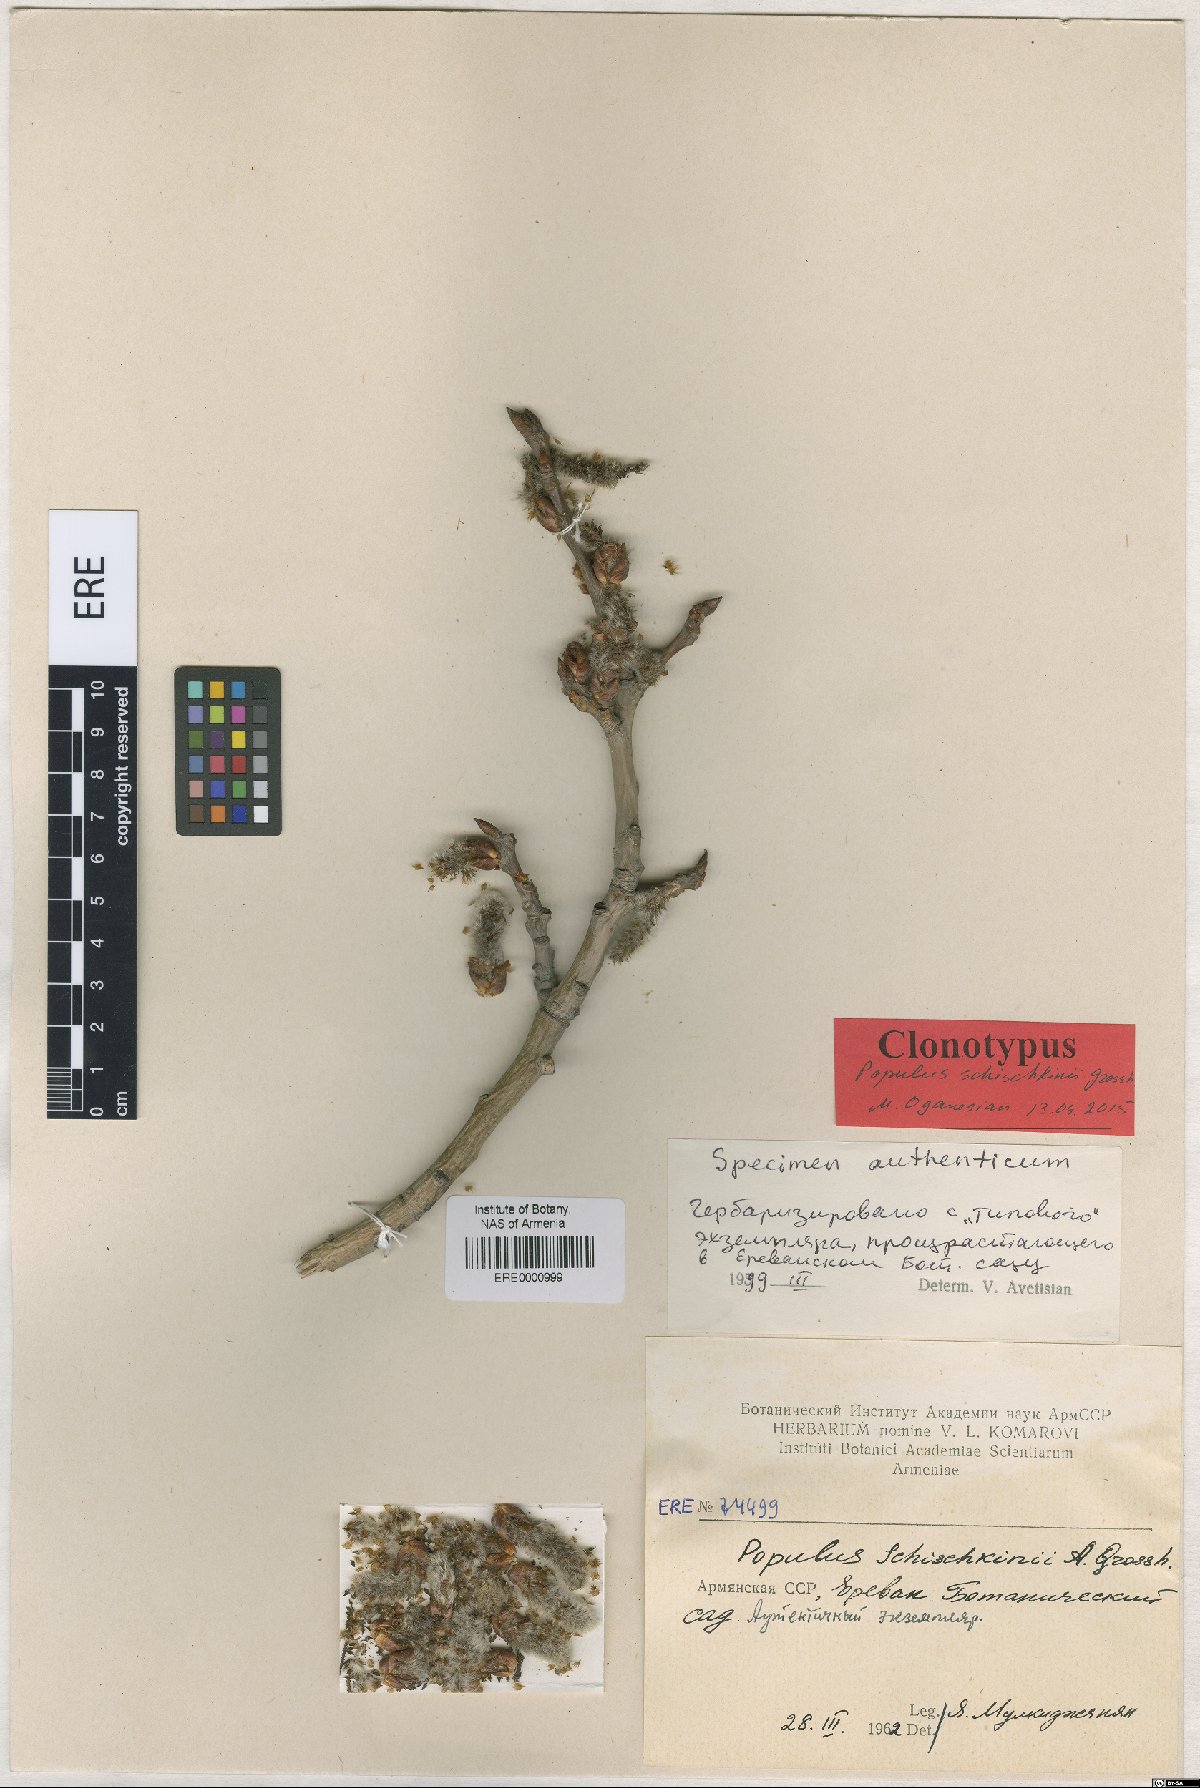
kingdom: Plantae
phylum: Tracheophyta
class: Magnoliopsida
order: Malpighiales
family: Salicaceae
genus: Populus
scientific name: Populus canescens
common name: Gray poplar
